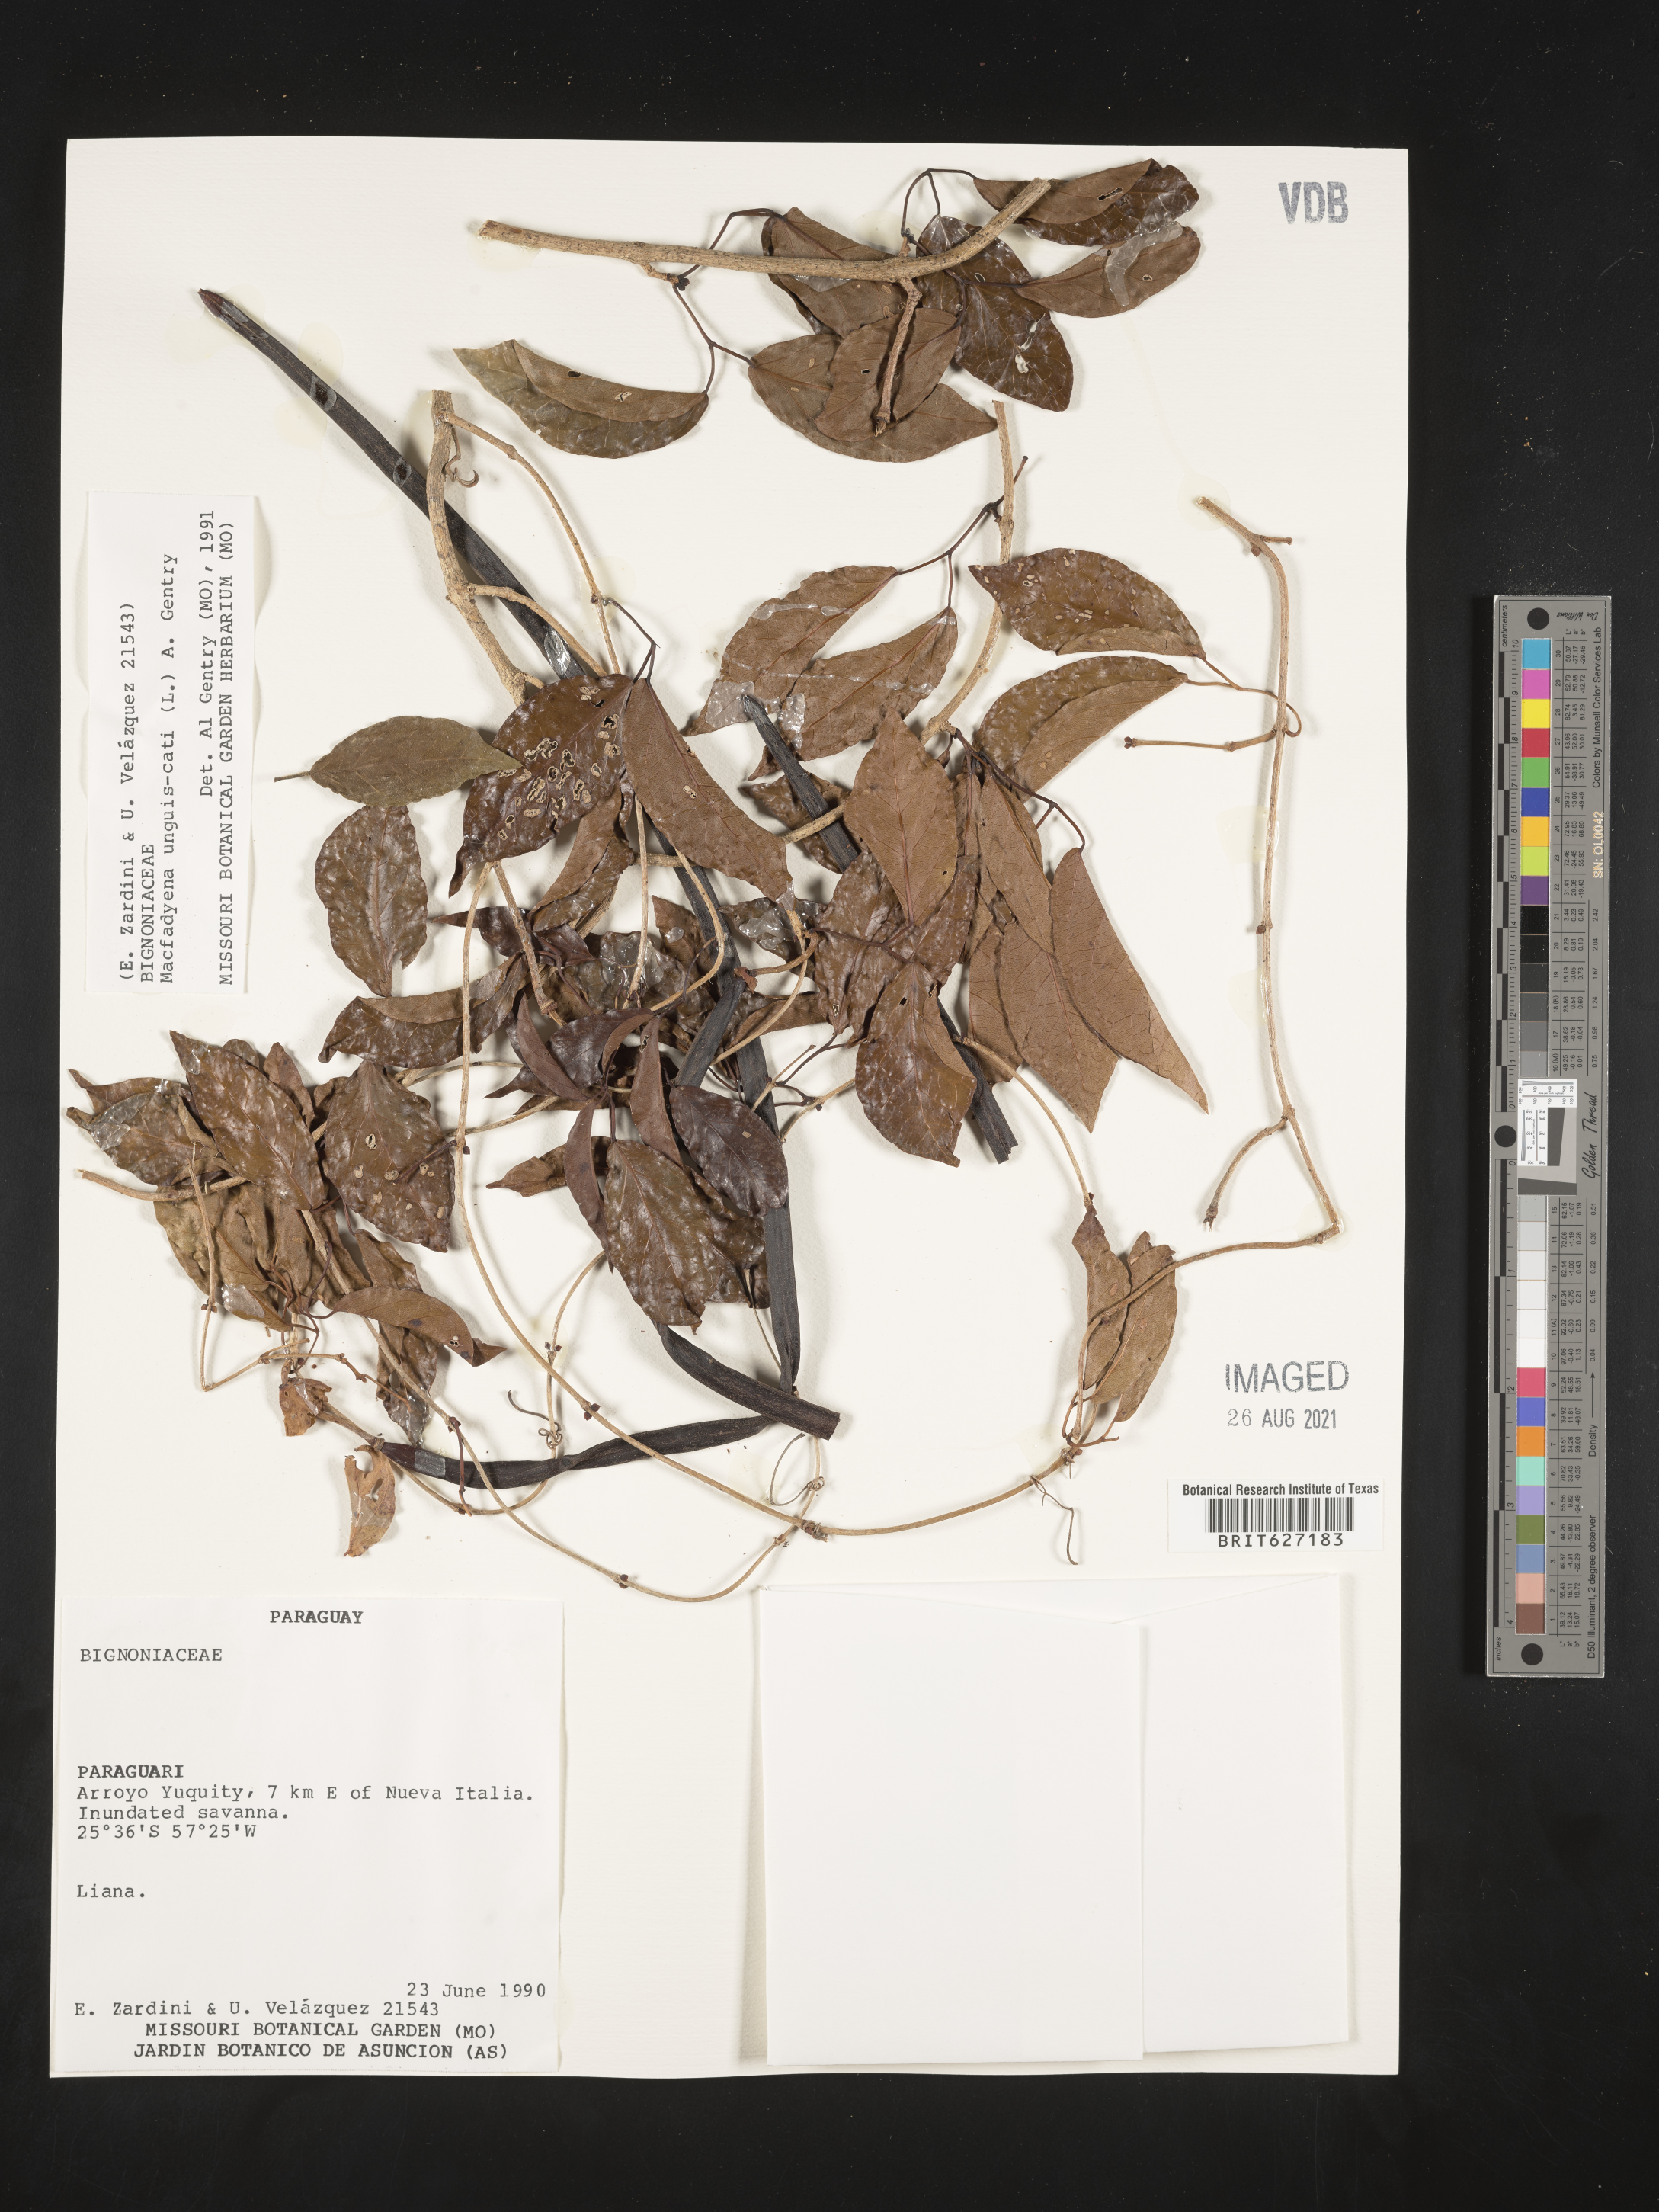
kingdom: Plantae
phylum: Tracheophyta
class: Magnoliopsida
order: Lamiales
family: Bignoniaceae
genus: Dolichandra
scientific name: Dolichandra unguis-cati
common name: Catclaw vine
